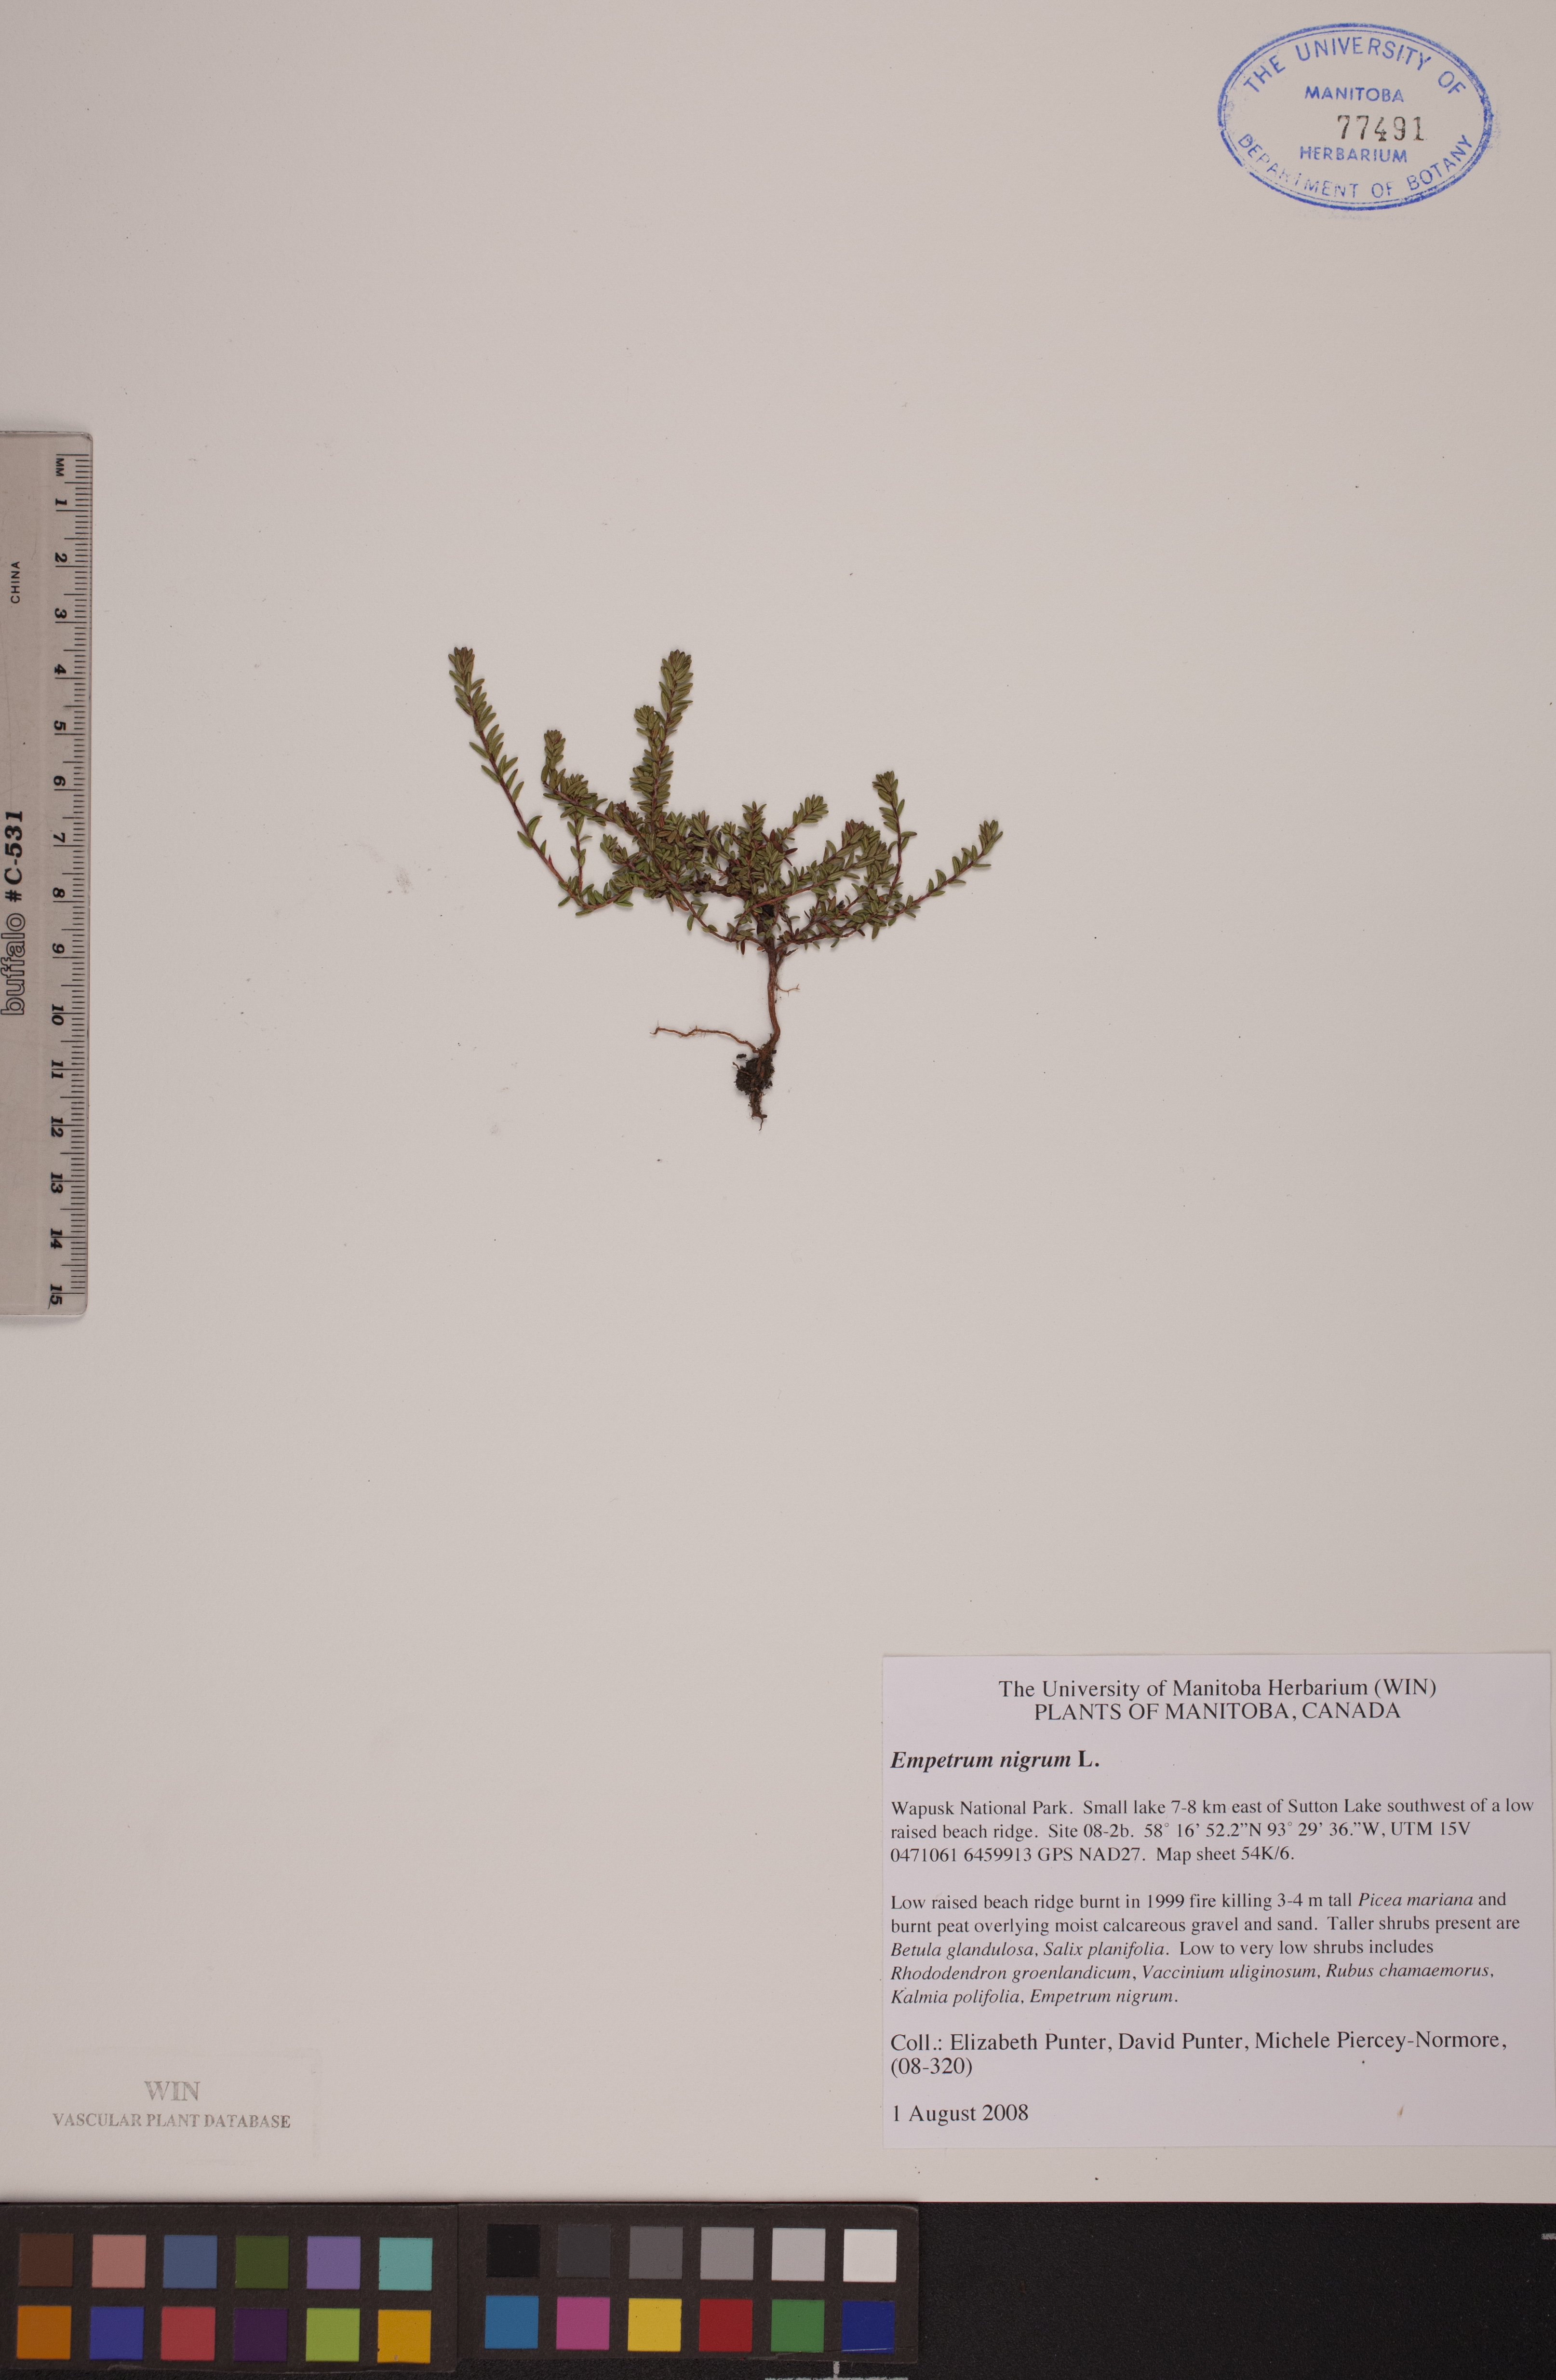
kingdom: Plantae
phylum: Tracheophyta
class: Magnoliopsida
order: Ericales
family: Ericaceae
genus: Empetrum
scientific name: Empetrum nigrum
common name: Black crowberry
